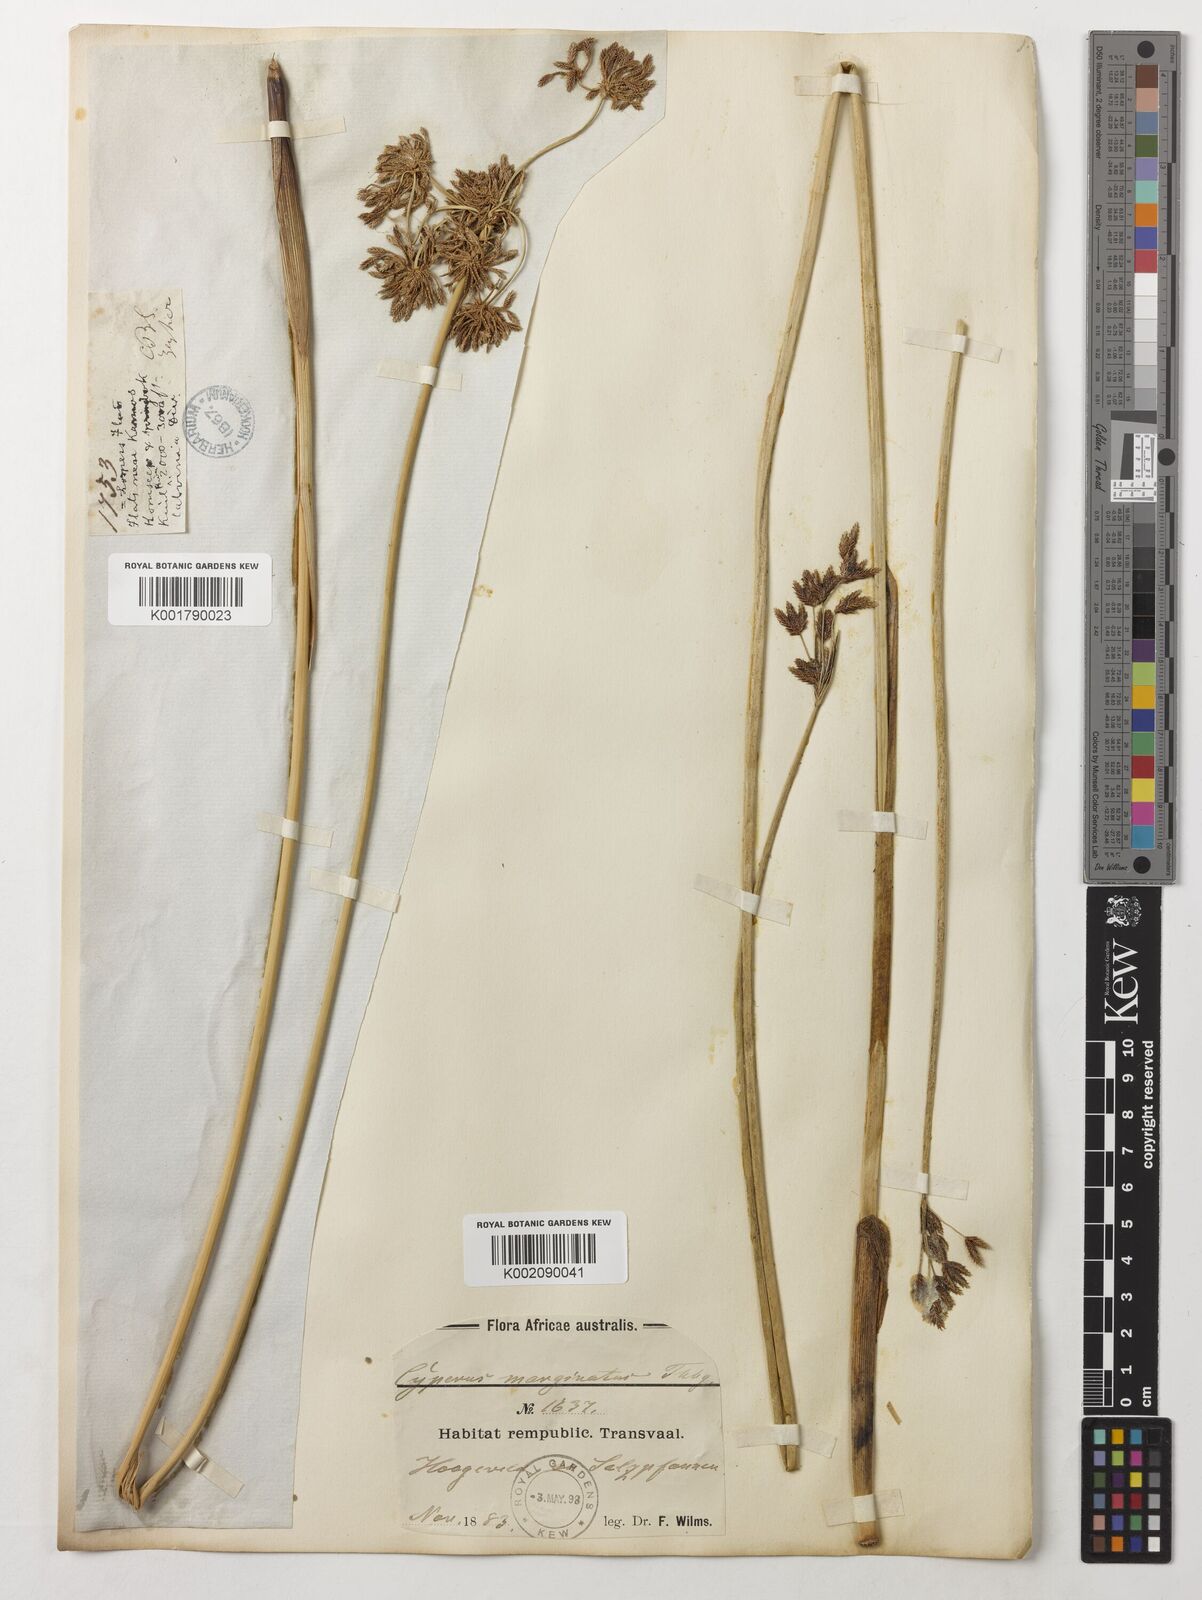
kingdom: Plantae
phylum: Tracheophyta
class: Liliopsida
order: Poales
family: Cyperaceae
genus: Cyperus
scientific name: Cyperus marginatus
